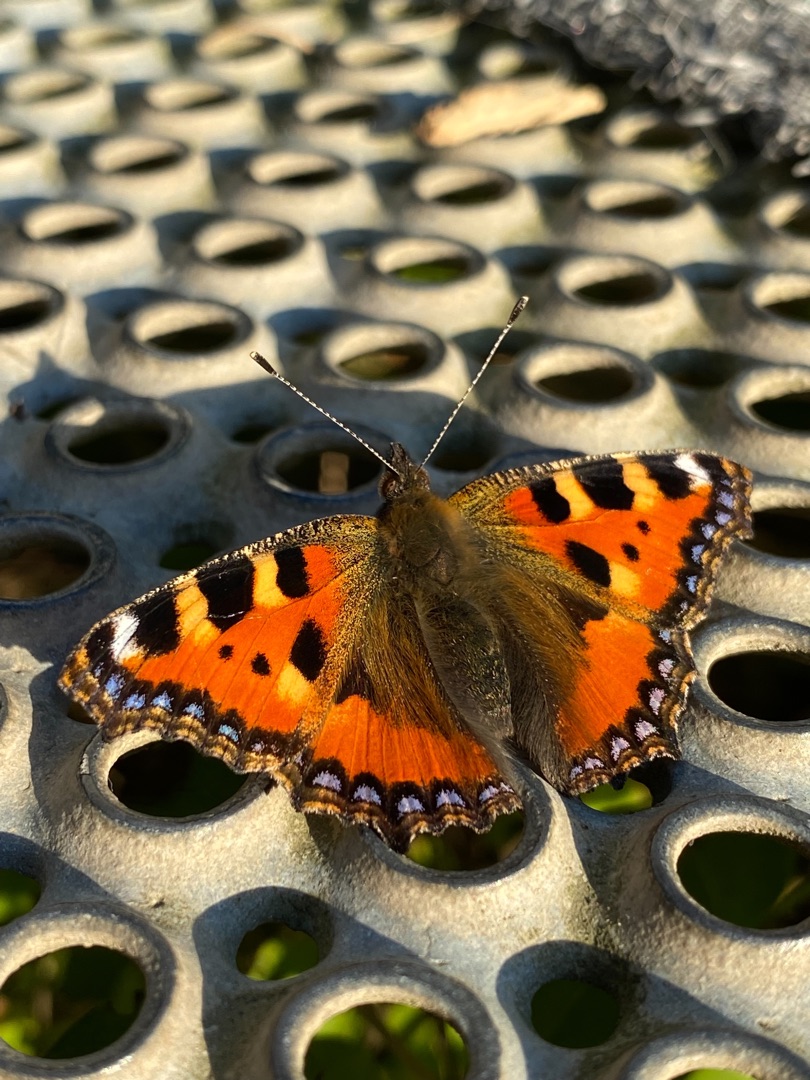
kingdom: Animalia
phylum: Arthropoda
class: Insecta
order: Lepidoptera
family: Nymphalidae
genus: Aglais
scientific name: Aglais urticae
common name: Nældens takvinge
